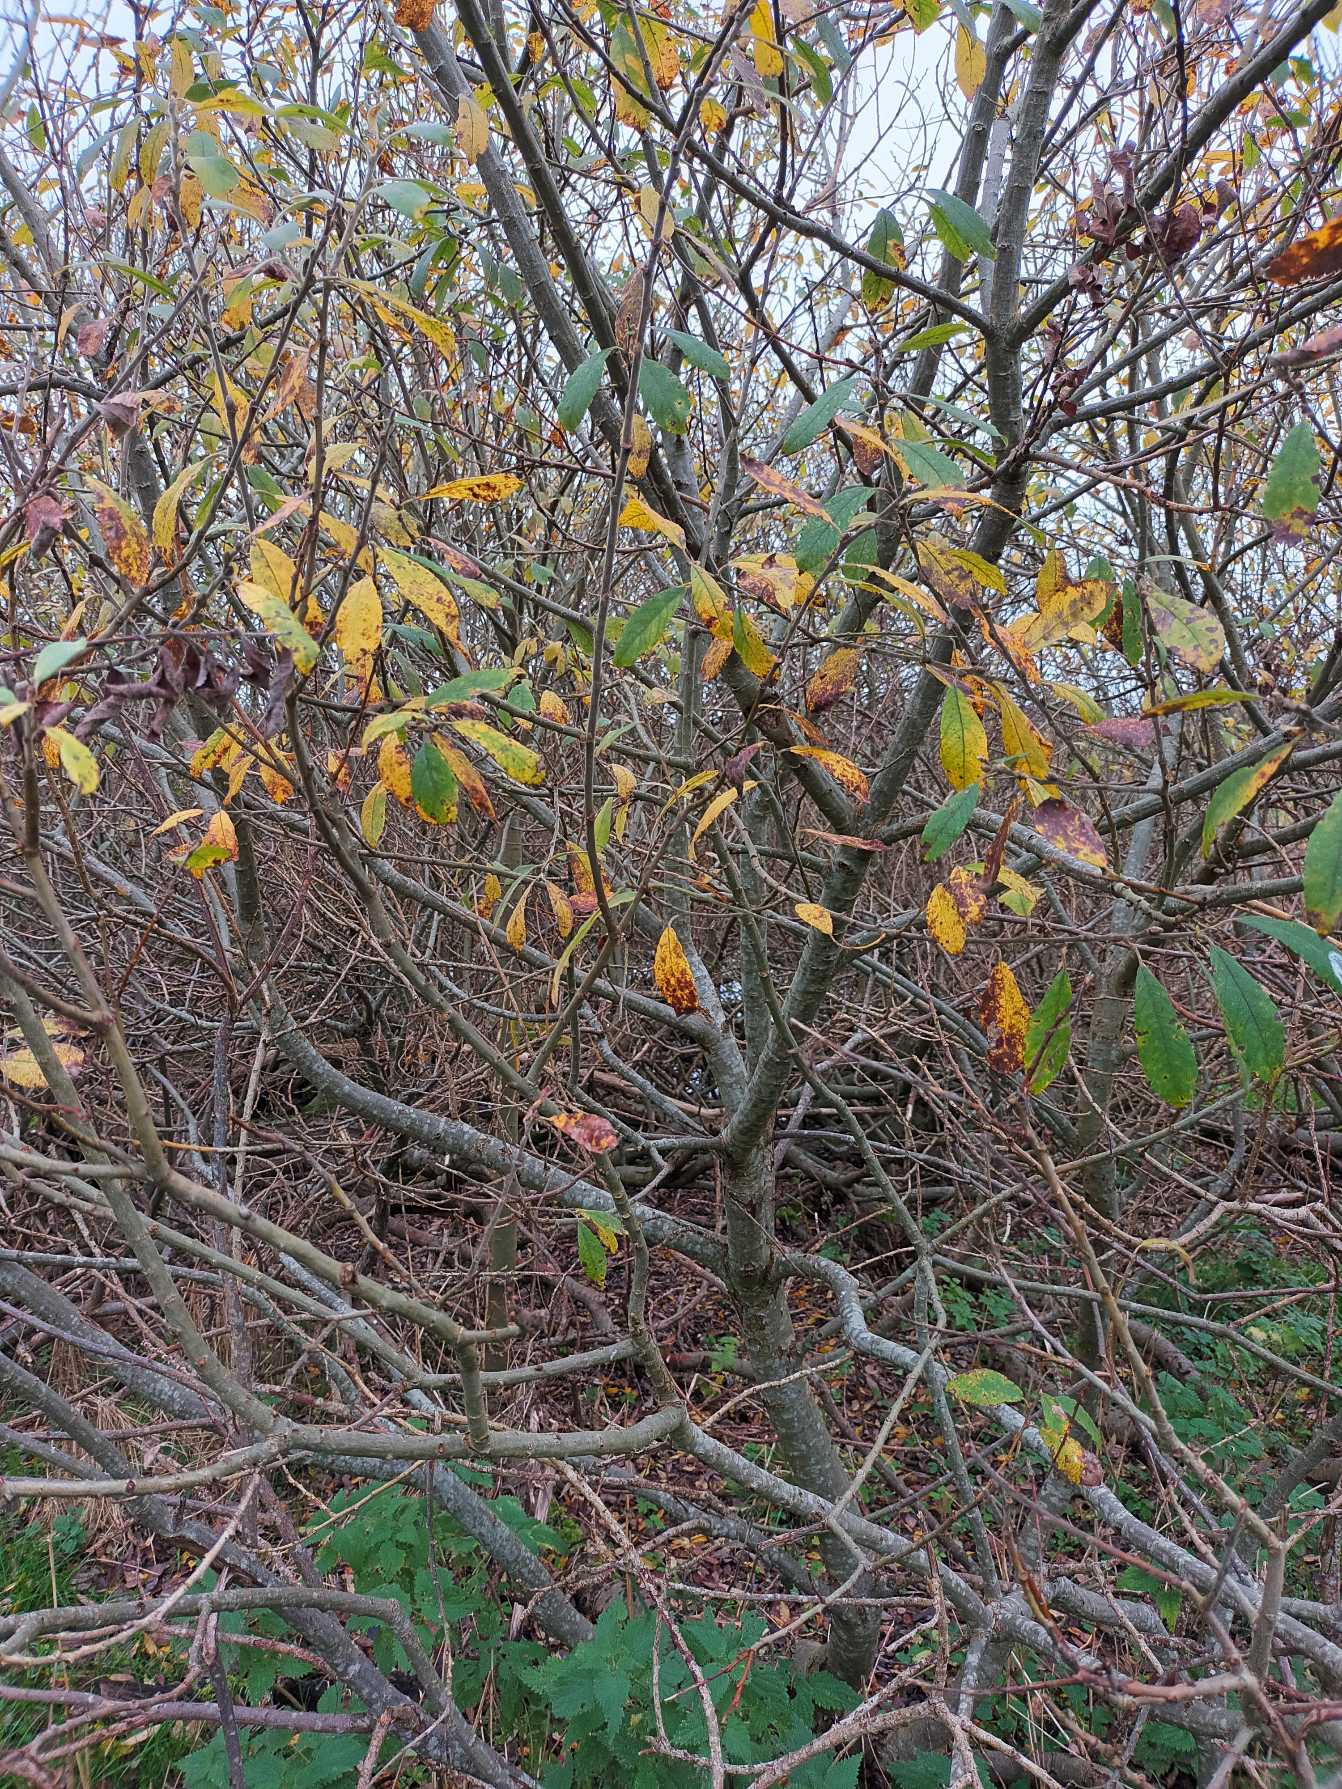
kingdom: Plantae
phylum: Tracheophyta
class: Magnoliopsida
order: Malpighiales
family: Salicaceae
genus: Salix
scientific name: Salix cinerea
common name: Grå-pil
